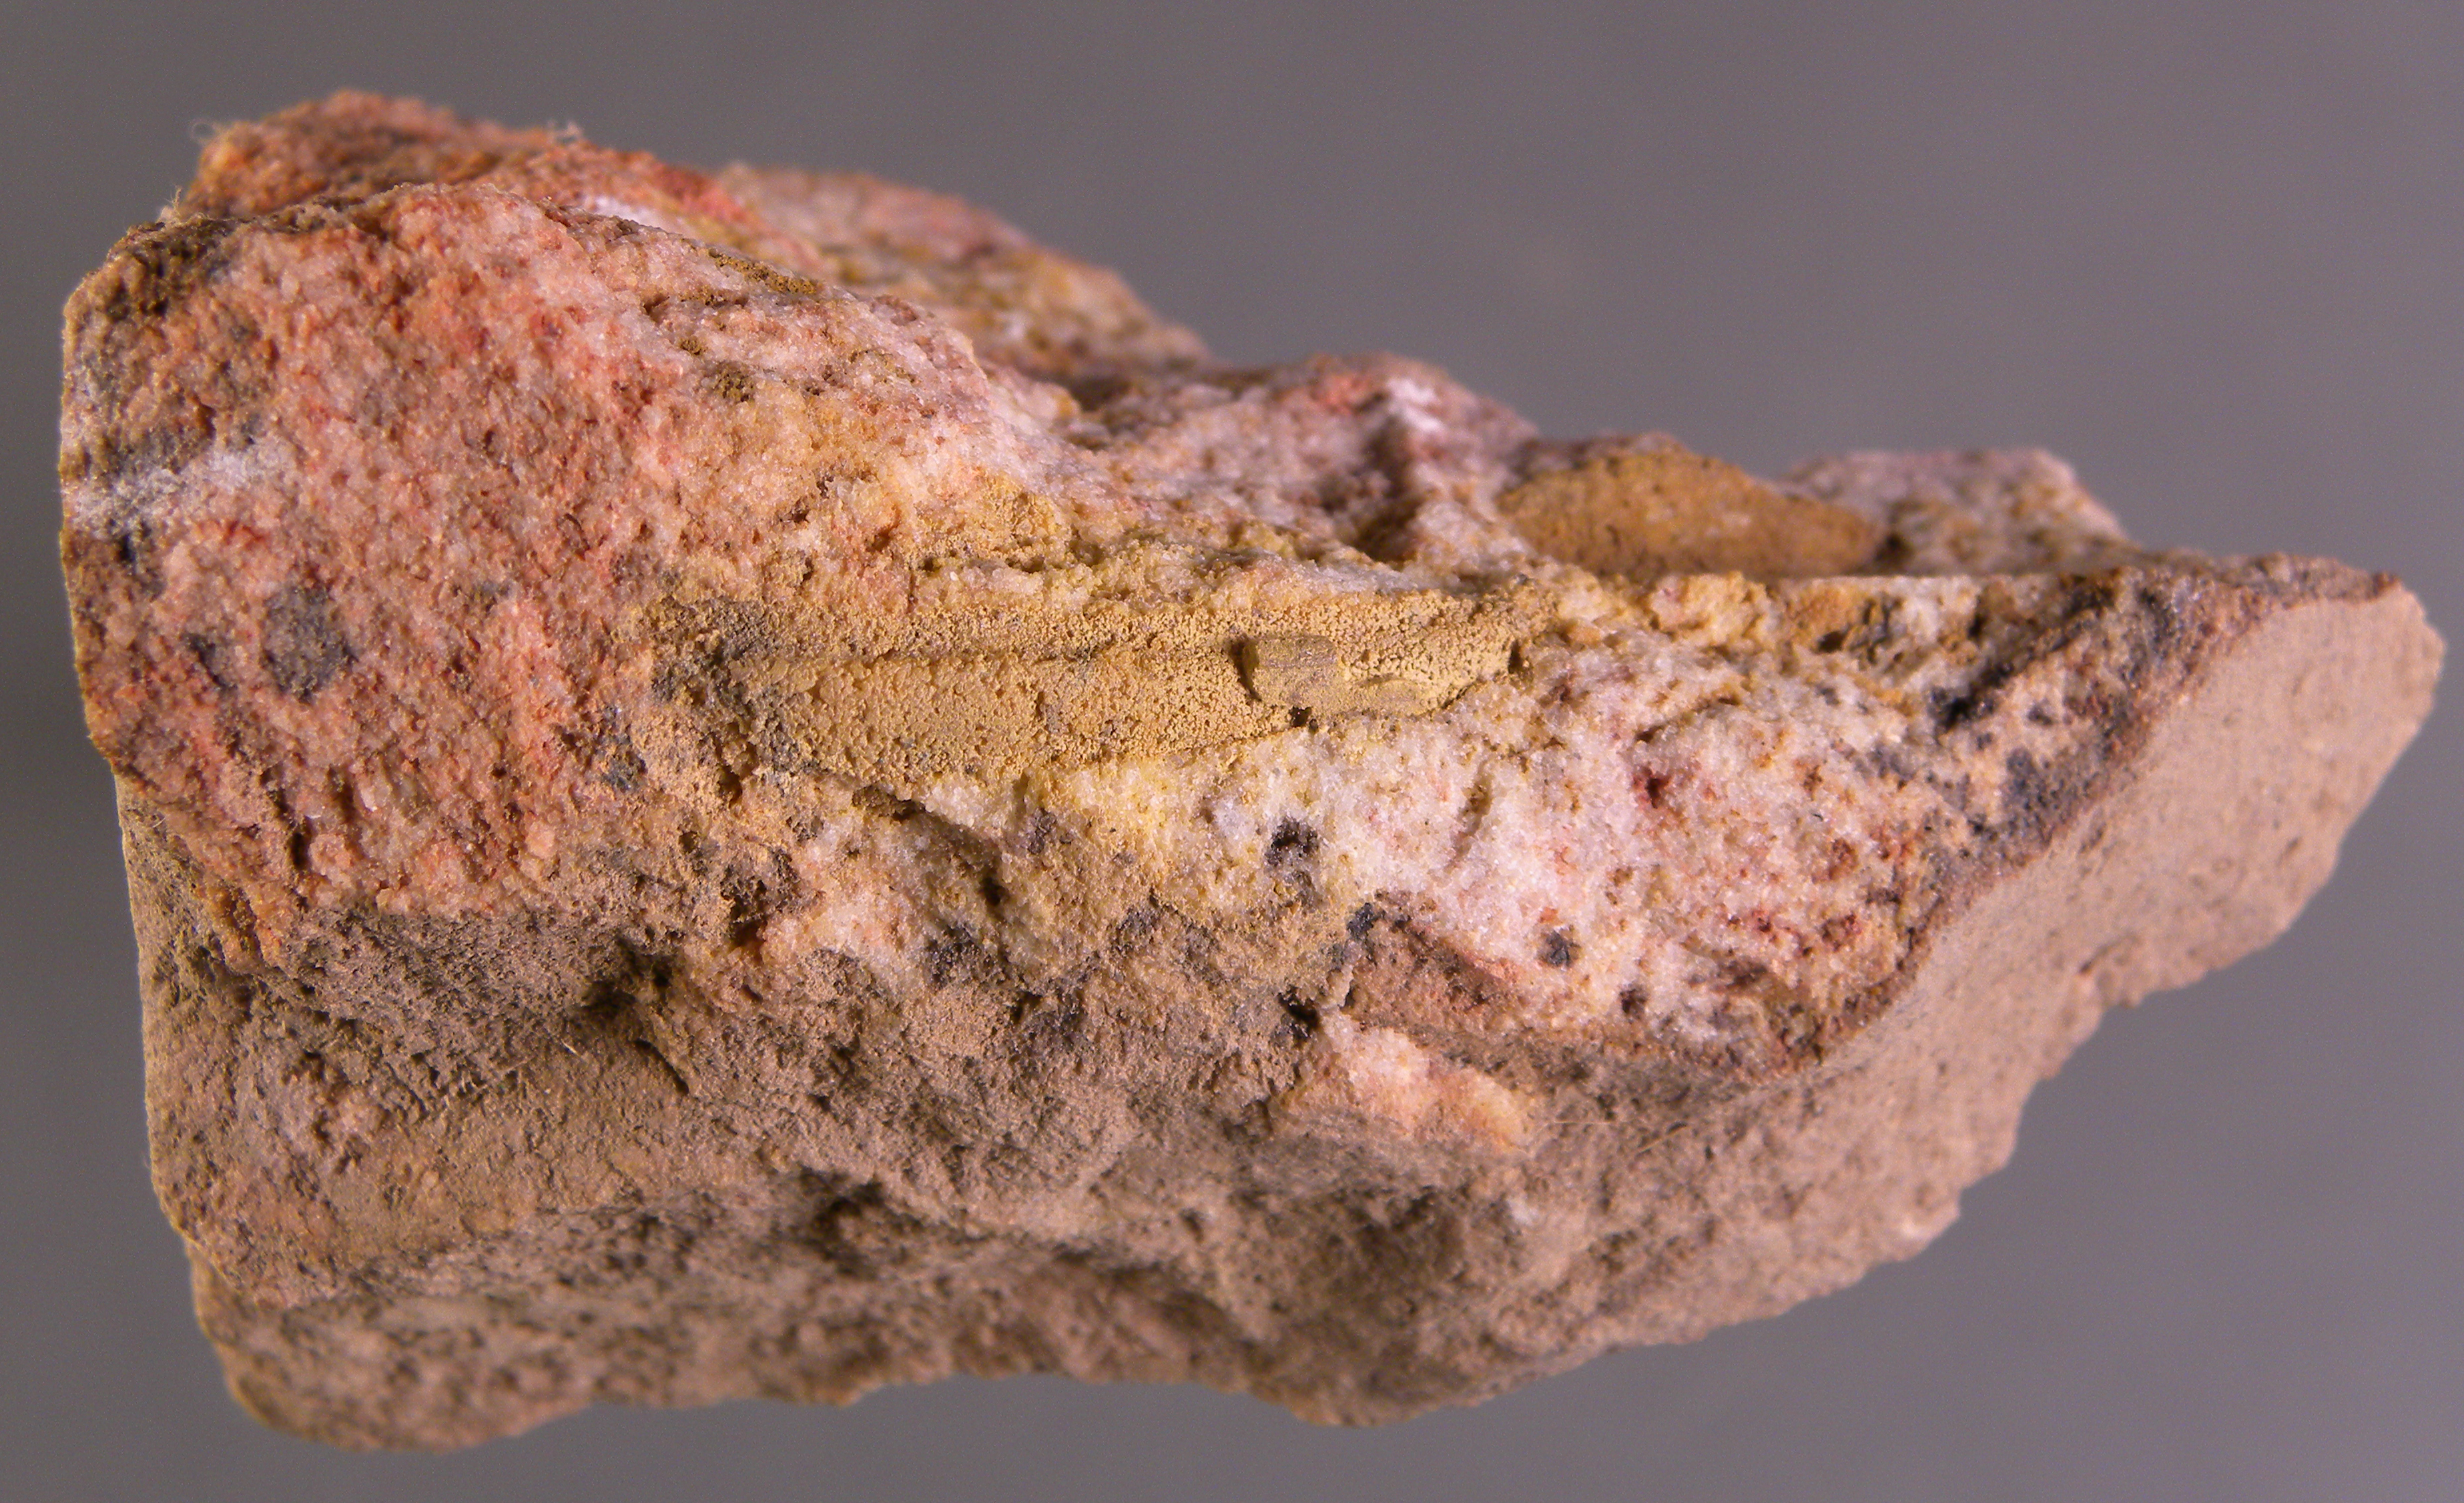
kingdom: Animalia
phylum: Arthropoda
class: Trilobita
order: Phacopida
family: Homalonotidae
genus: Digonus
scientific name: Digonus
